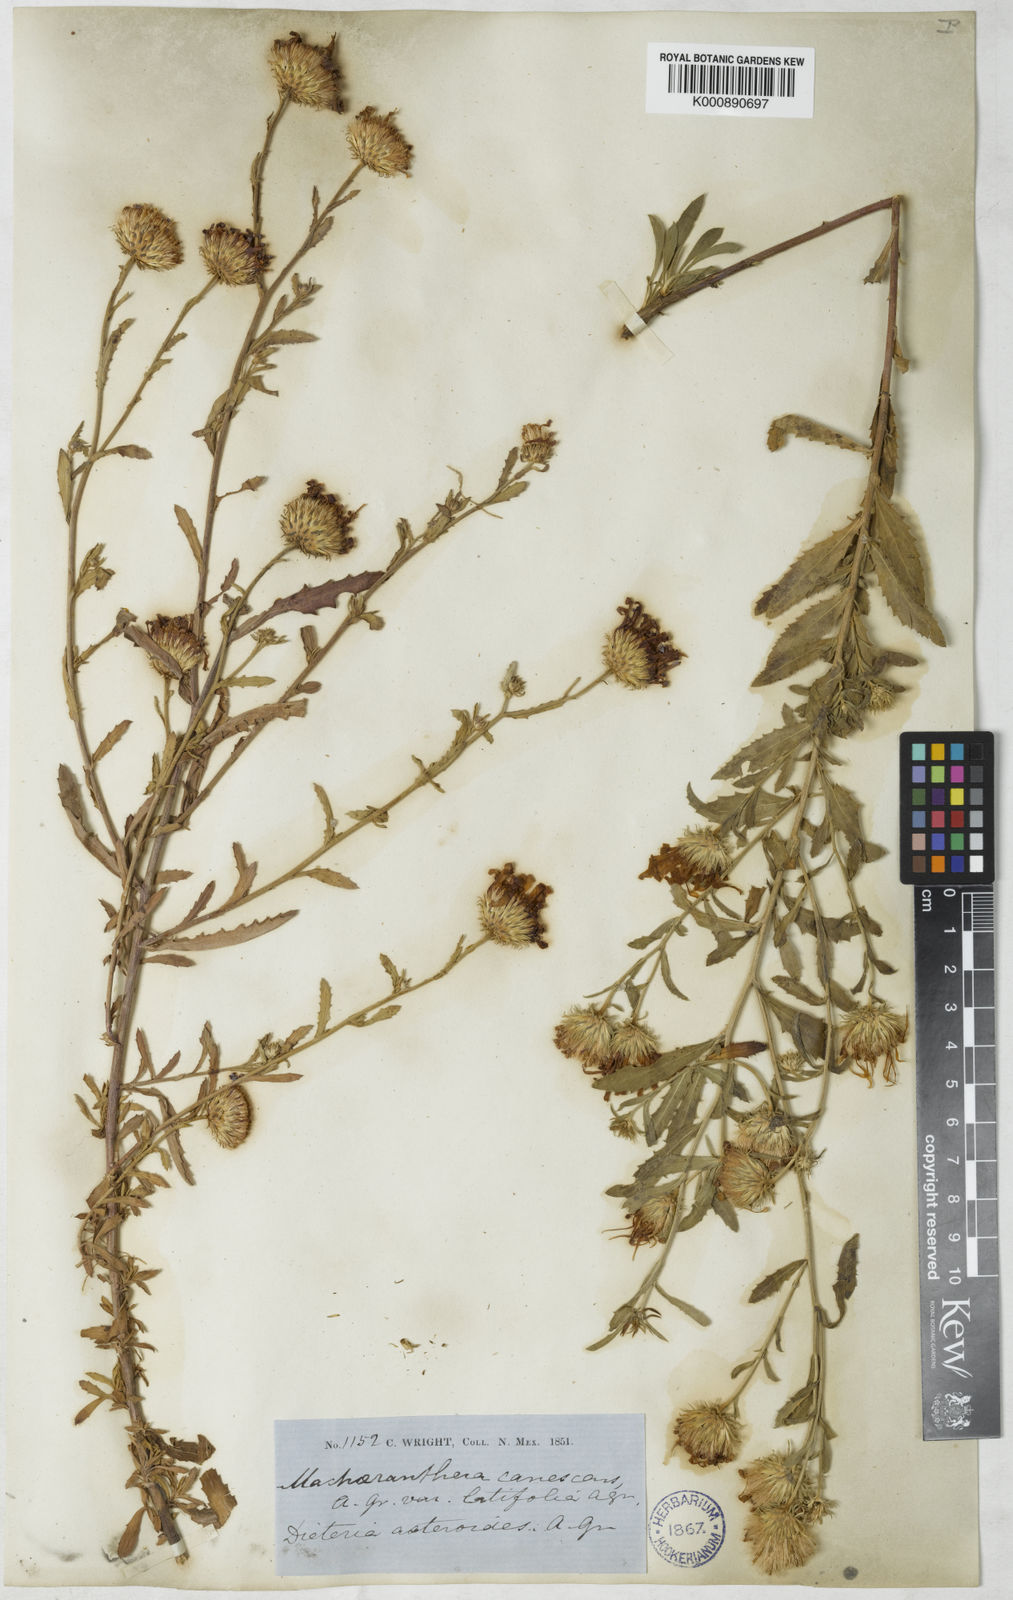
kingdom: Plantae
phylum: Tracheophyta
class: Magnoliopsida
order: Asterales
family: Asteraceae
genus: Dieteria
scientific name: Dieteria asteroides
